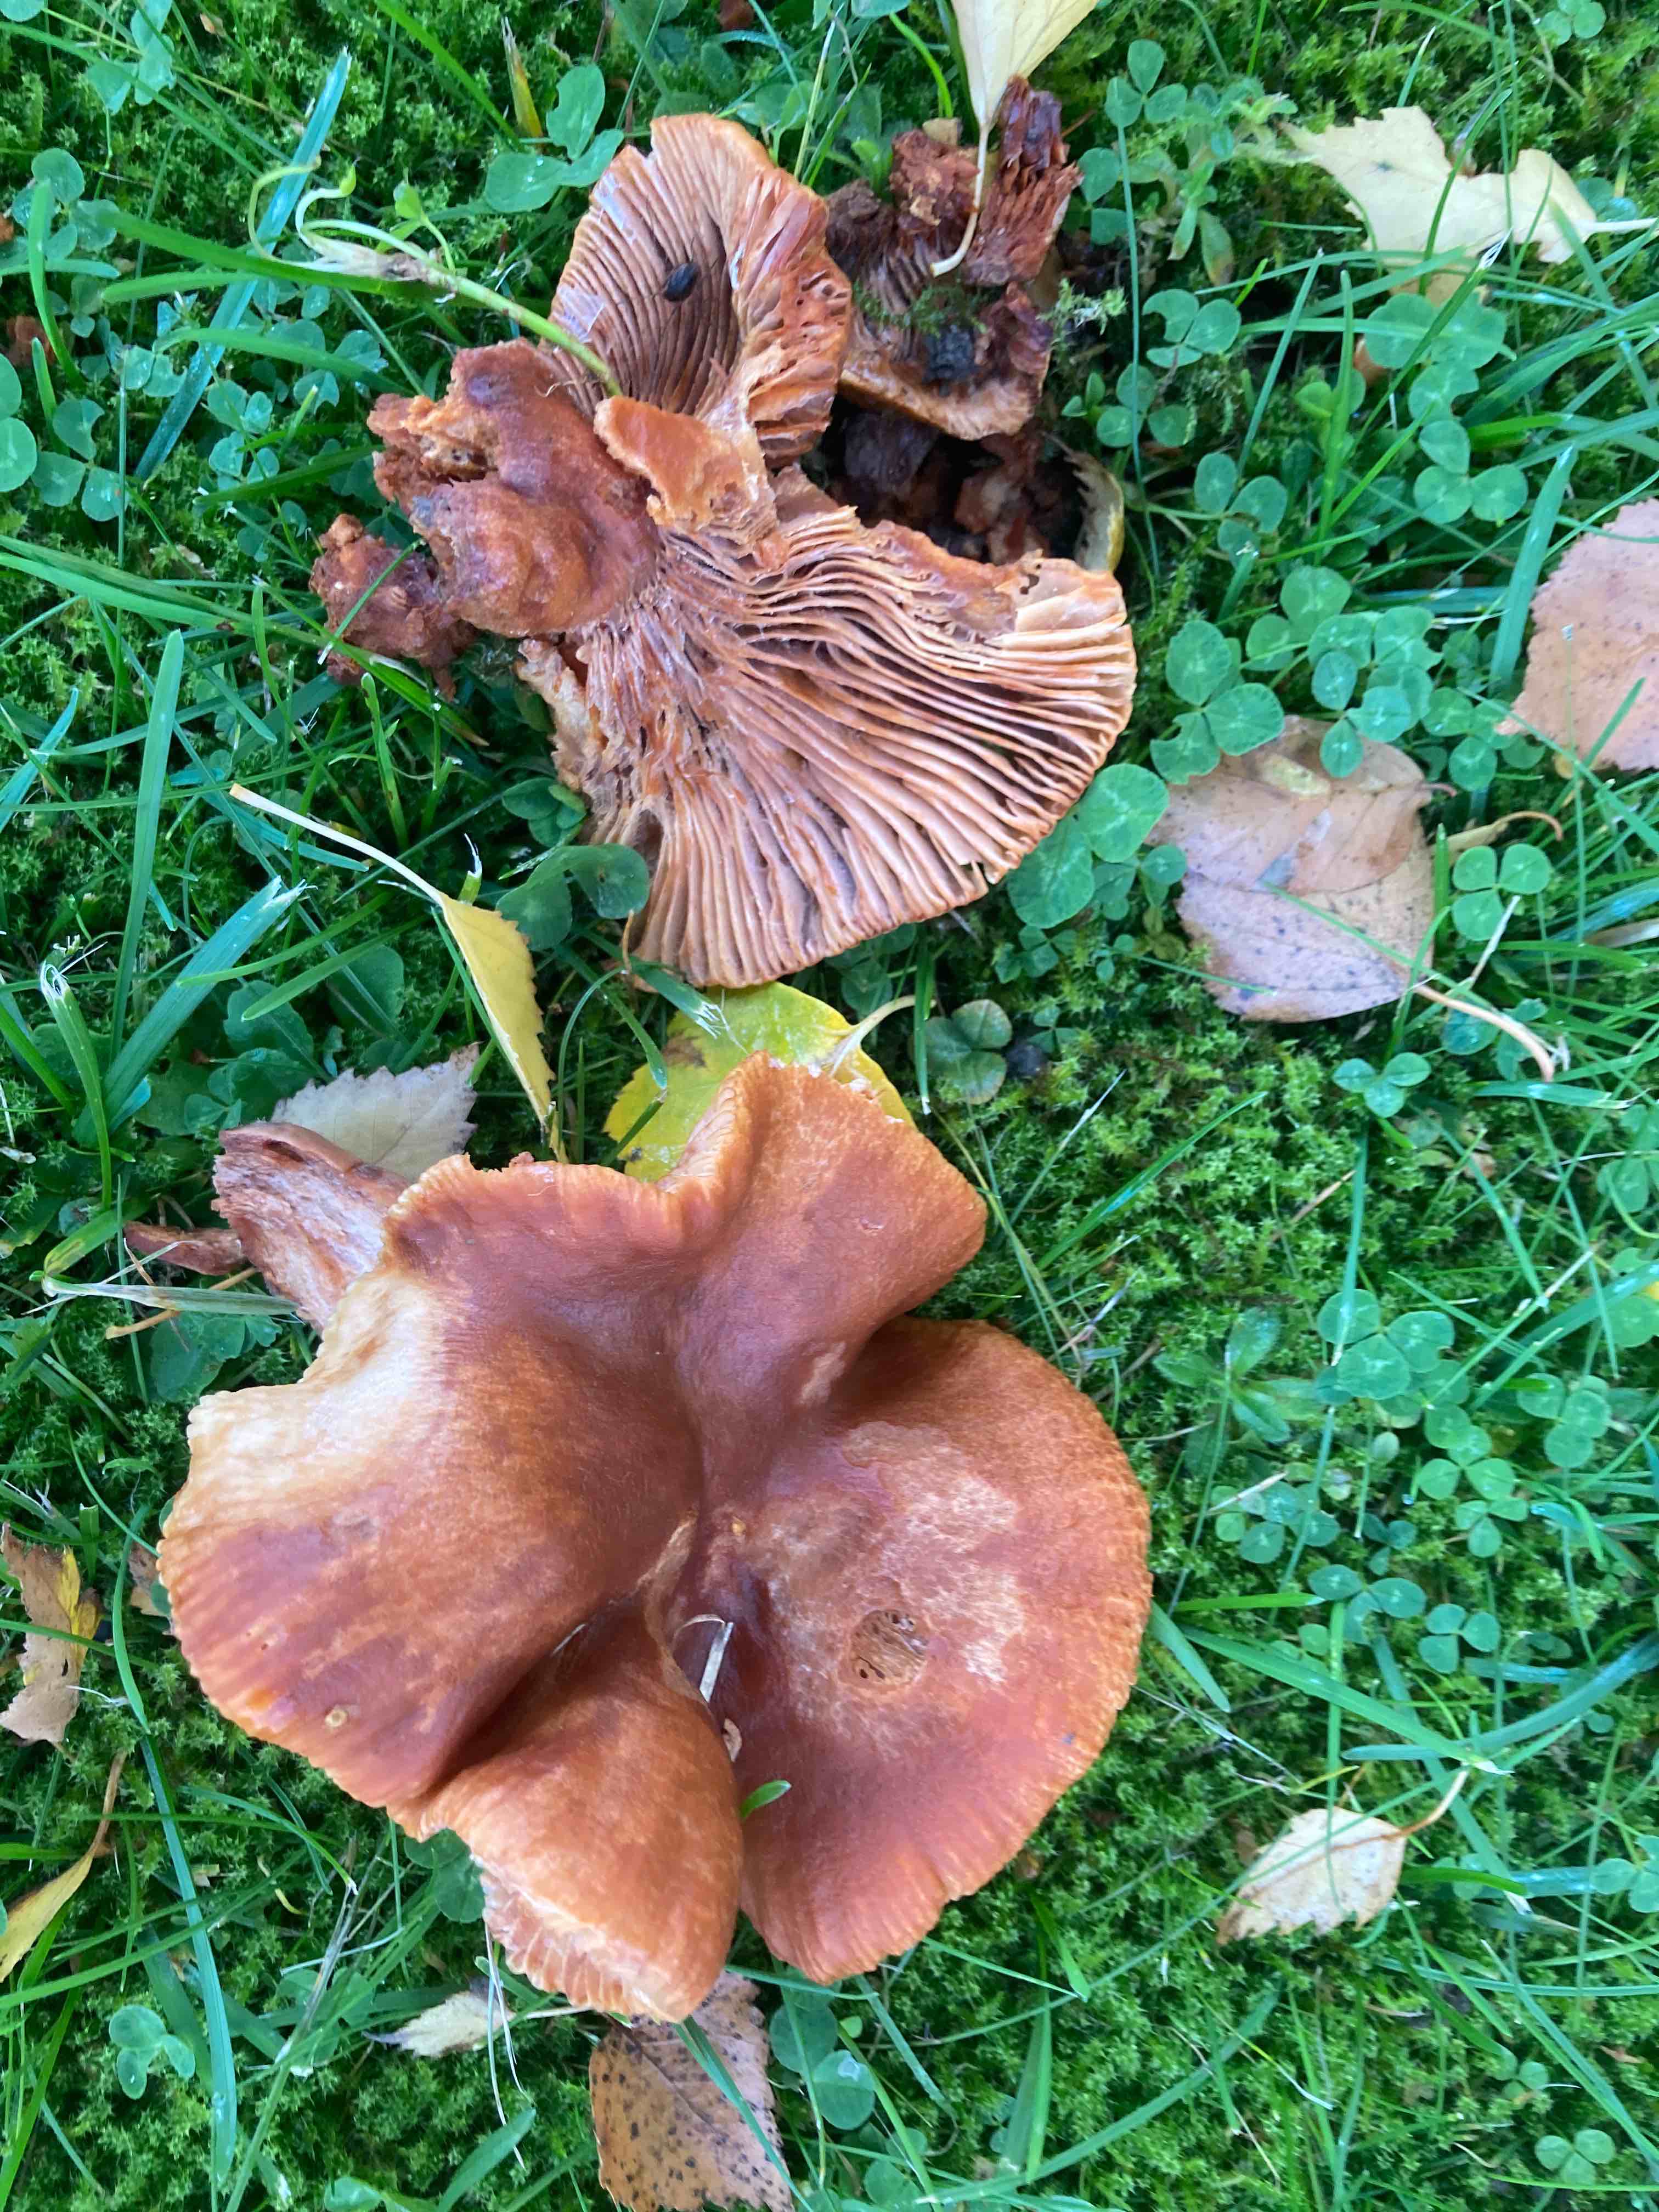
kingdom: Fungi
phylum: Basidiomycota
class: Agaricomycetes
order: Russulales
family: Russulaceae
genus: Lactarius
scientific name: Lactarius fulvissimus
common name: ræve-mælkehat
